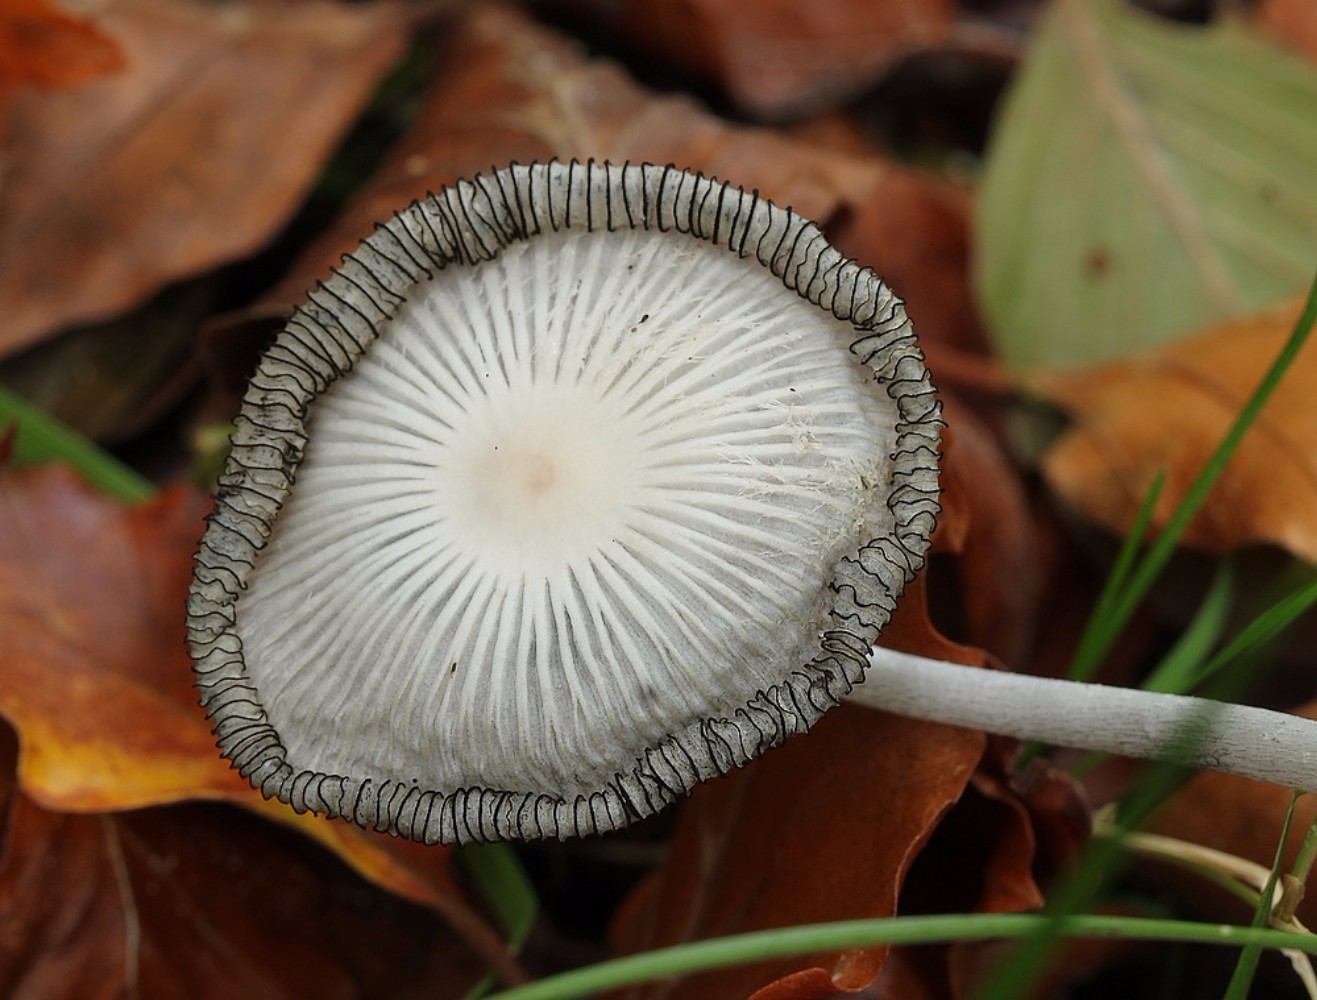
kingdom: Fungi
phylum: Basidiomycota
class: Agaricomycetes
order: Agaricales
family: Agaricaceae
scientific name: Agaricaceae
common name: champignonfamilien
